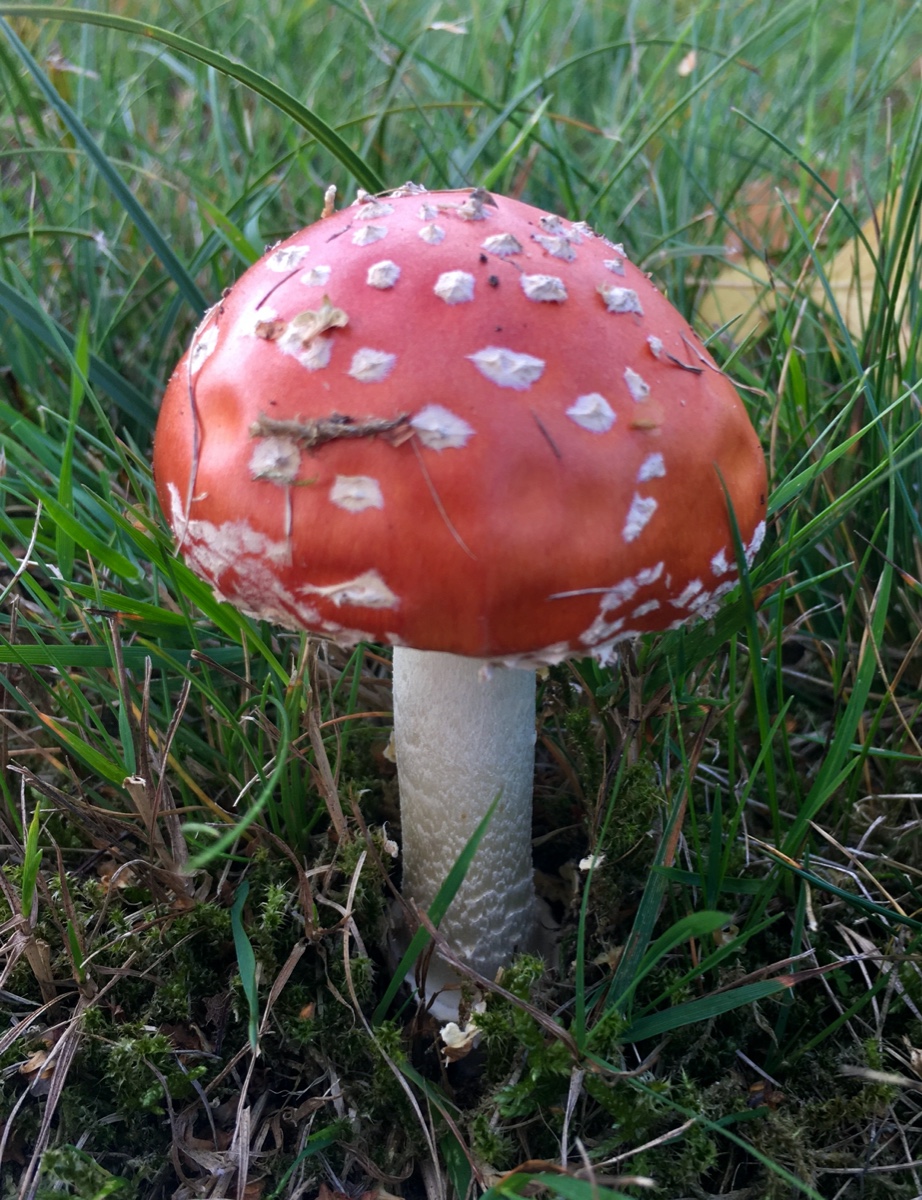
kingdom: Fungi
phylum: Basidiomycota
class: Agaricomycetes
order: Agaricales
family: Amanitaceae
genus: Amanita
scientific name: Amanita muscaria
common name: rød fluesvamp
